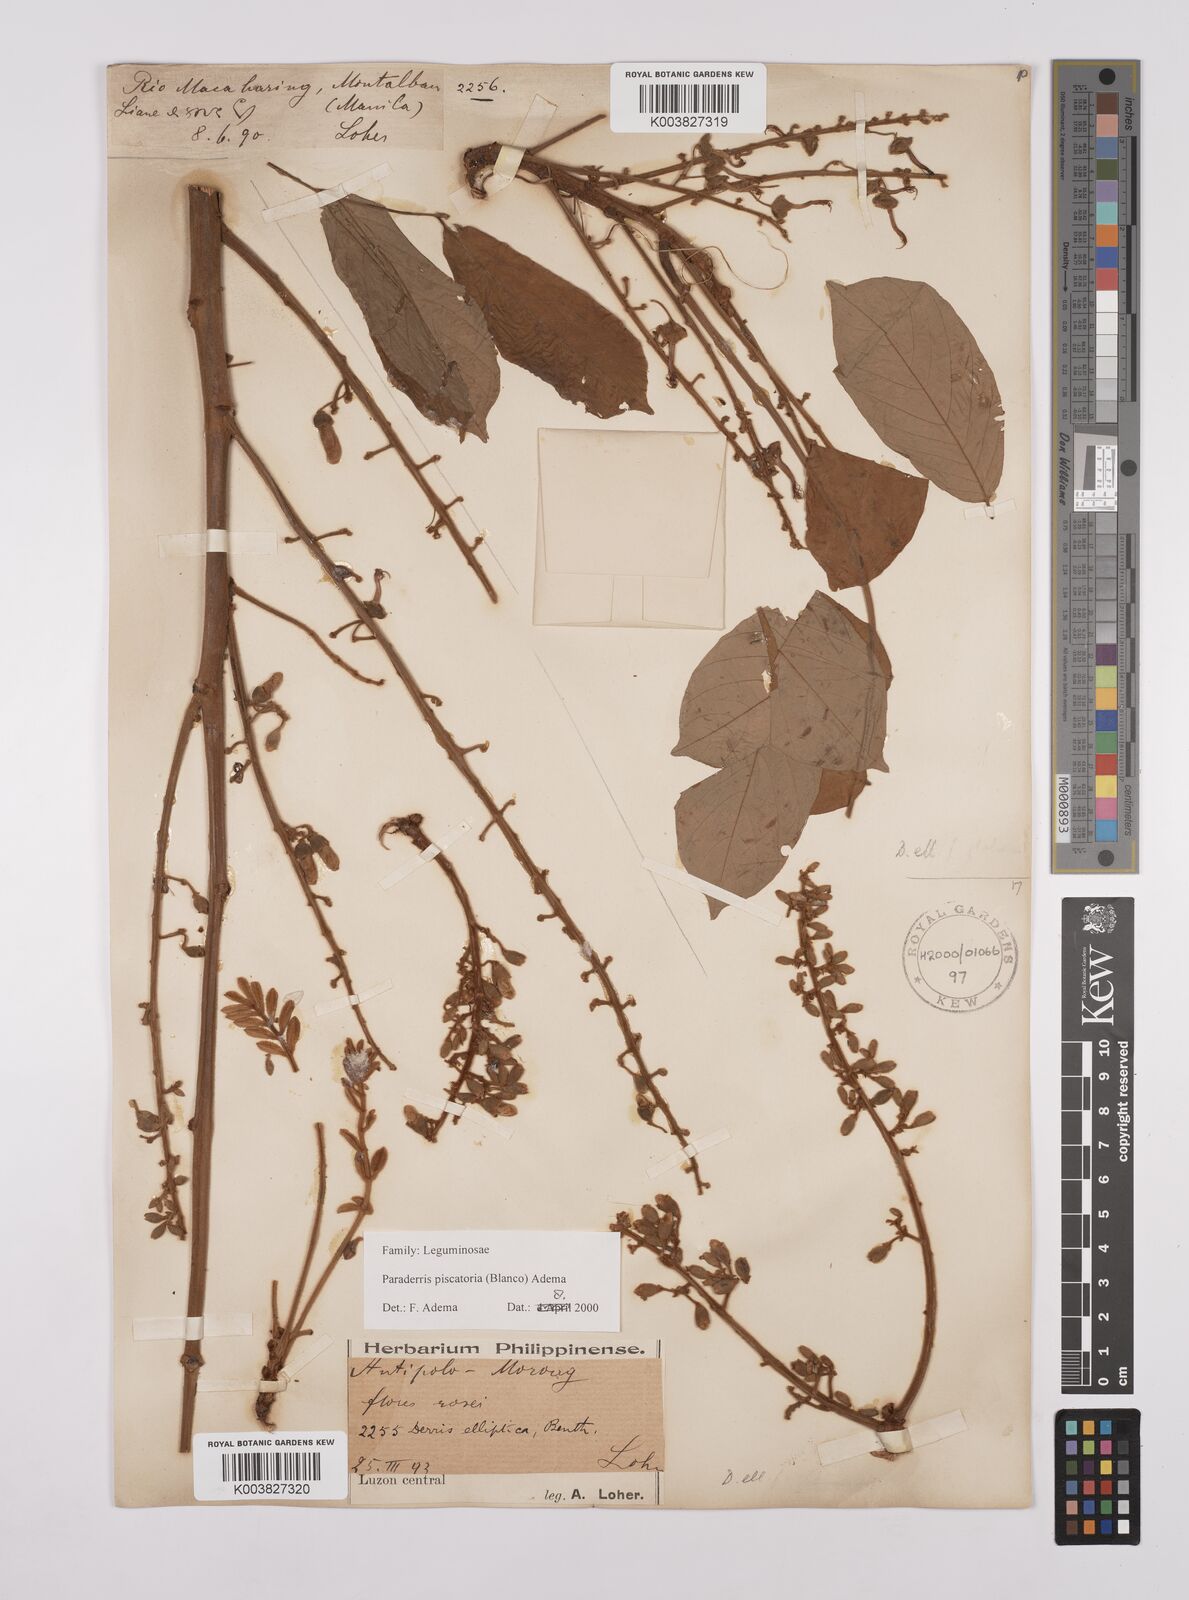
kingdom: Plantae
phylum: Tracheophyta
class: Magnoliopsida
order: Fabales
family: Fabaceae
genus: Derris
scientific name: Derris piscatoria
